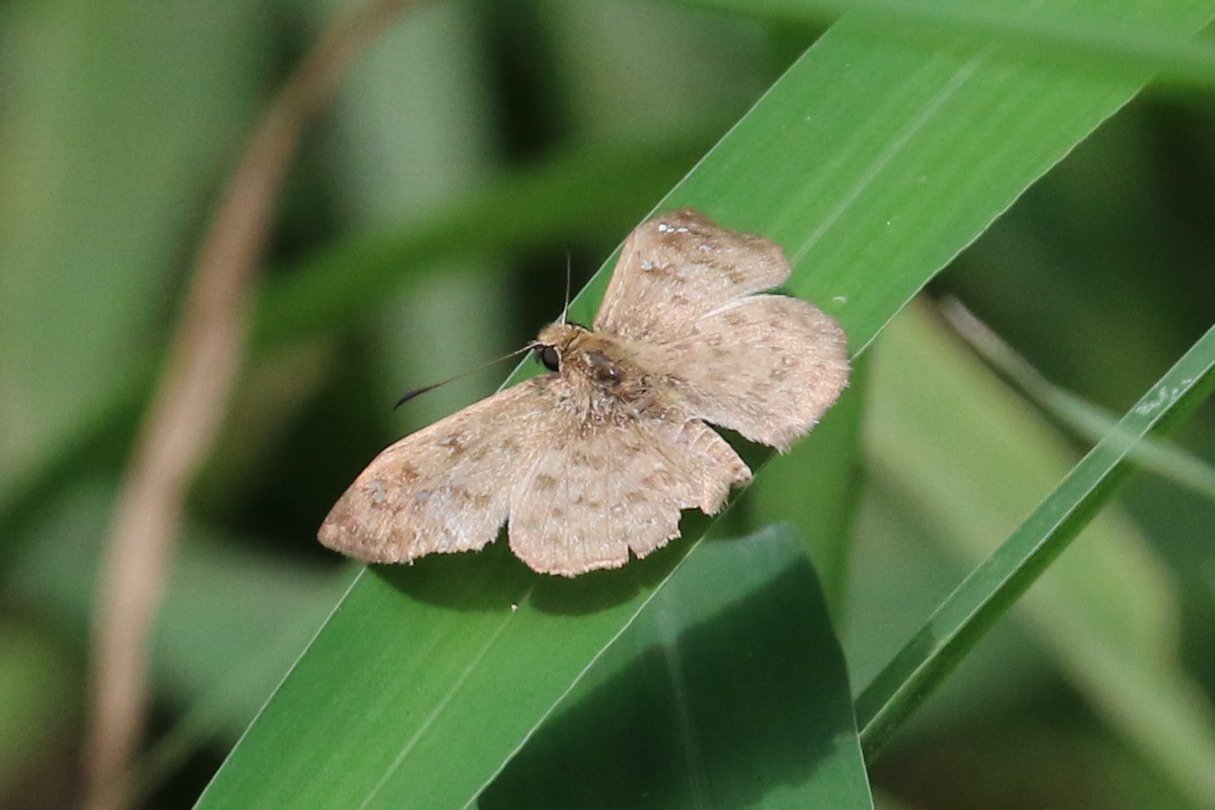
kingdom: Animalia
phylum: Arthropoda
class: Insecta
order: Lepidoptera
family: Hesperiidae
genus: Carrhenes
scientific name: Carrhenes canescens
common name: Hoary Skipper
